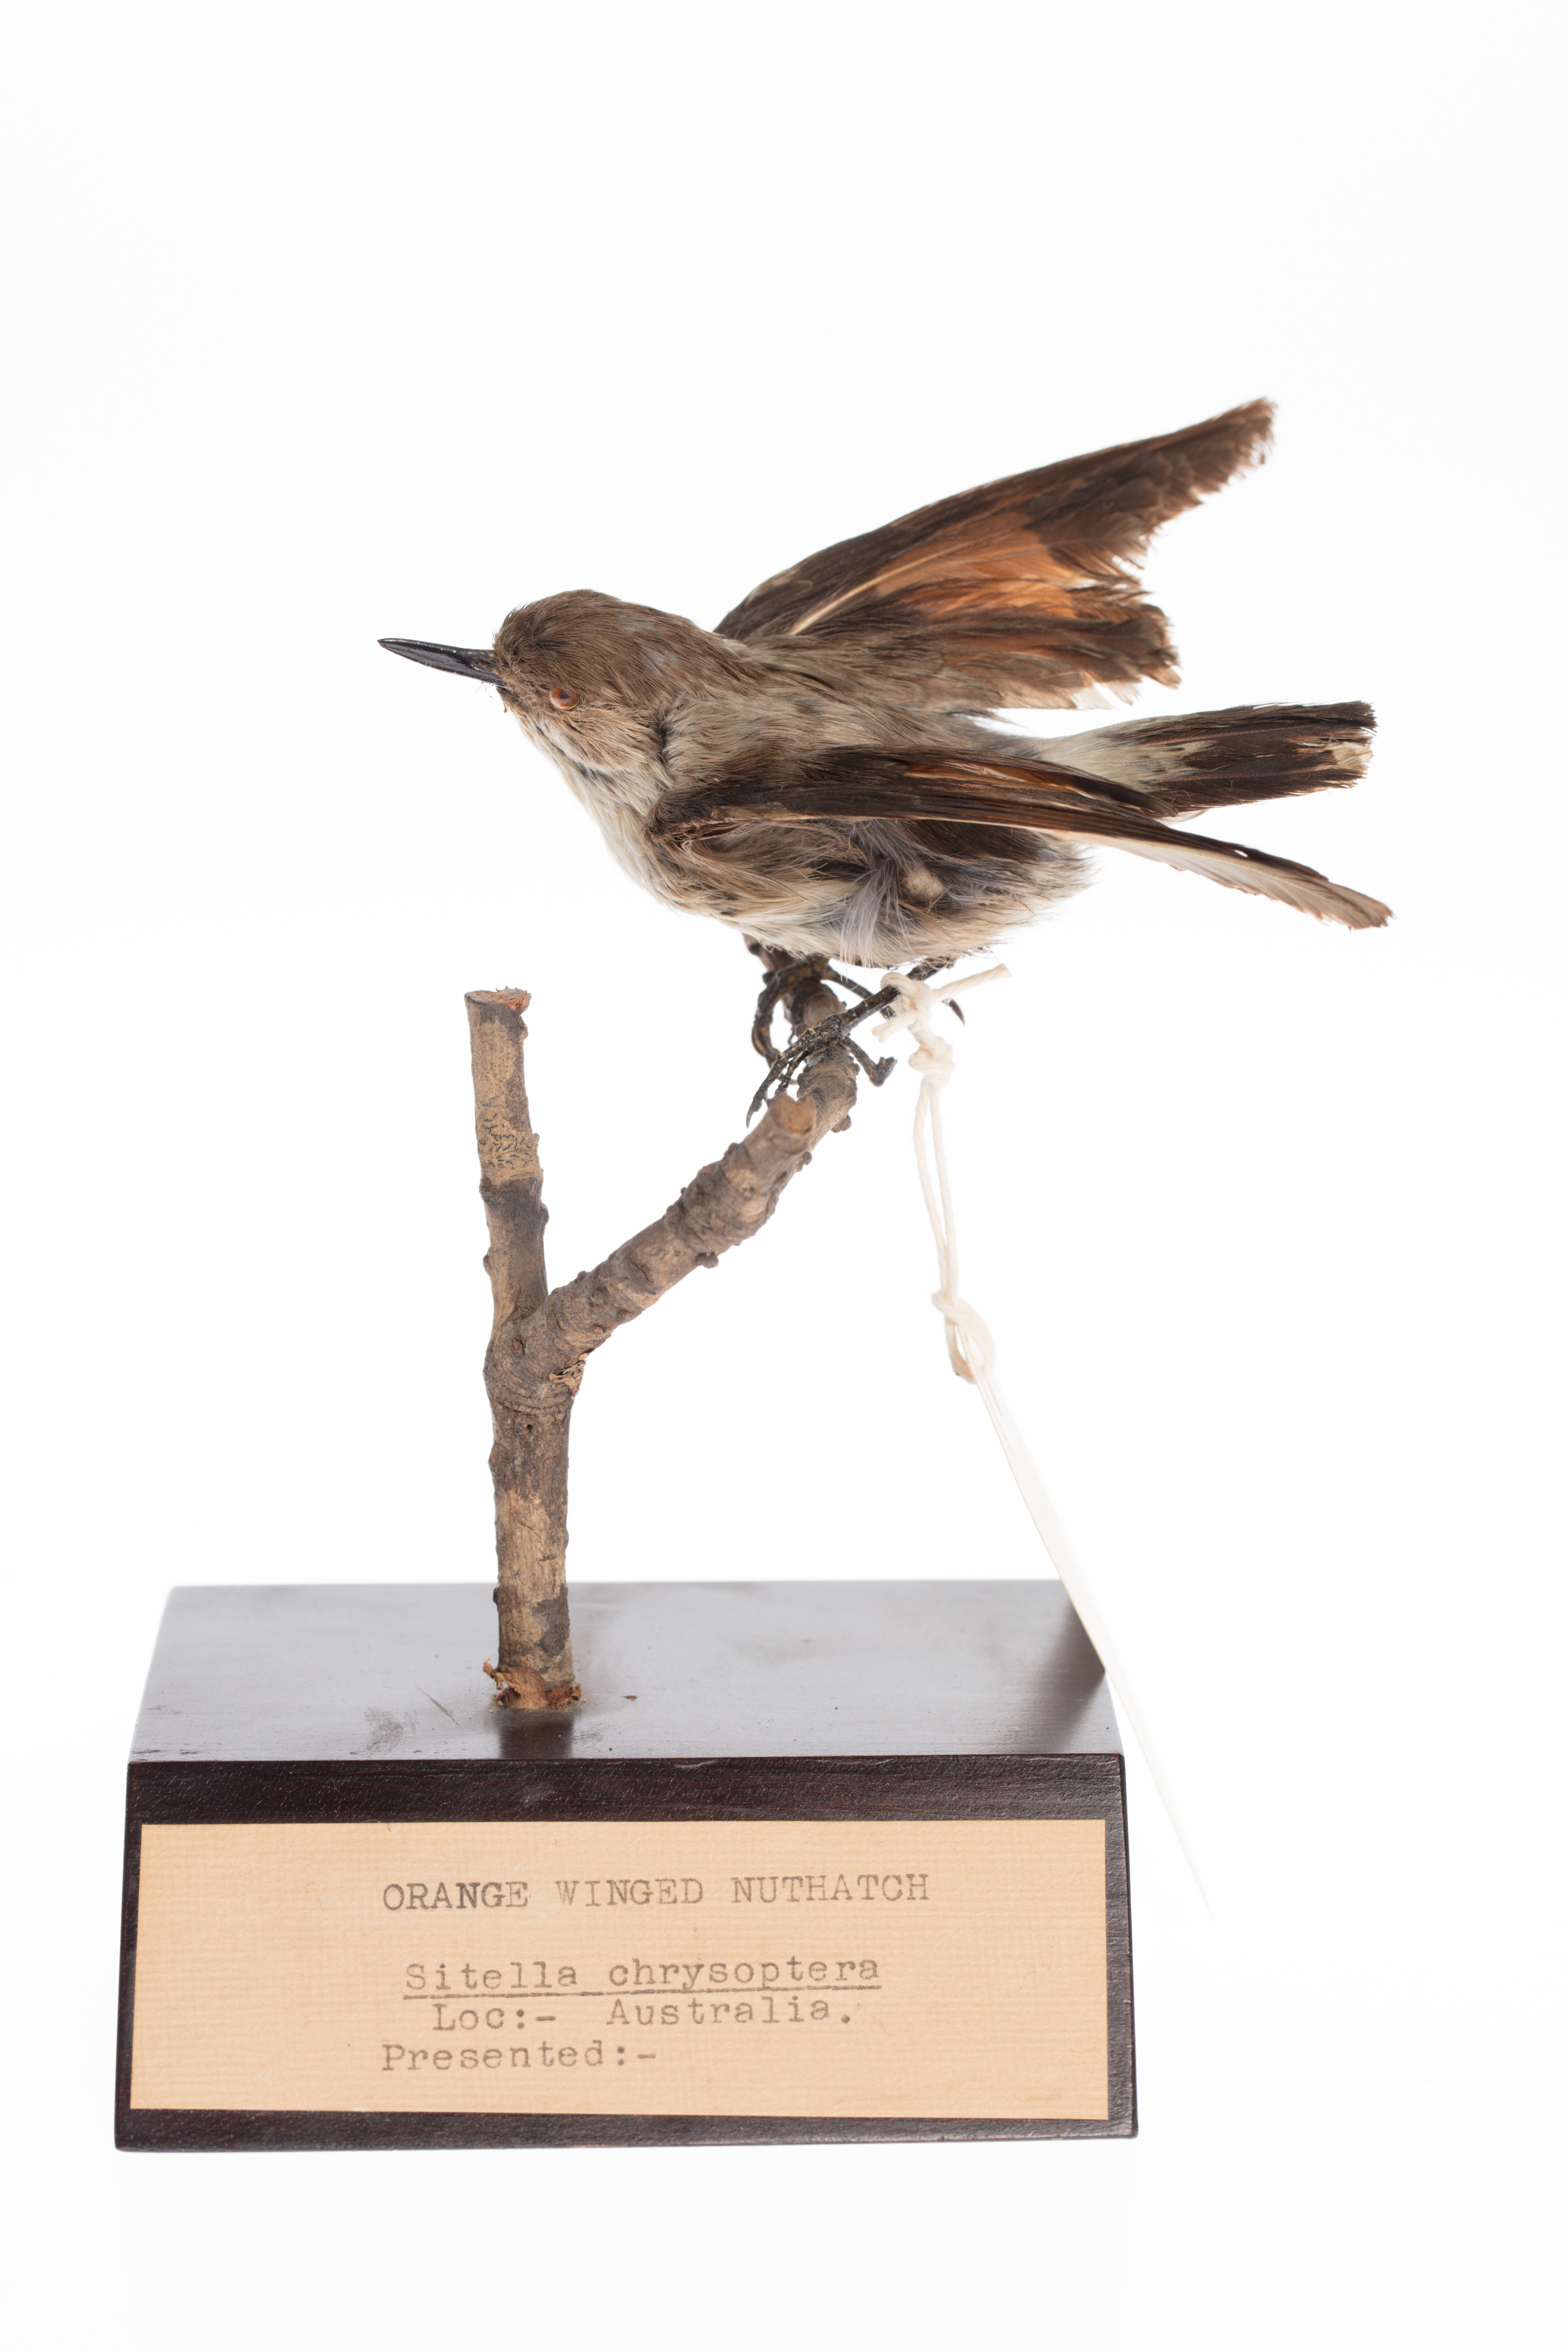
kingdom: Animalia
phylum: Chordata
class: Aves
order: Passeriformes
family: Neosittidae
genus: Daphoenositta
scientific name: Daphoenositta
